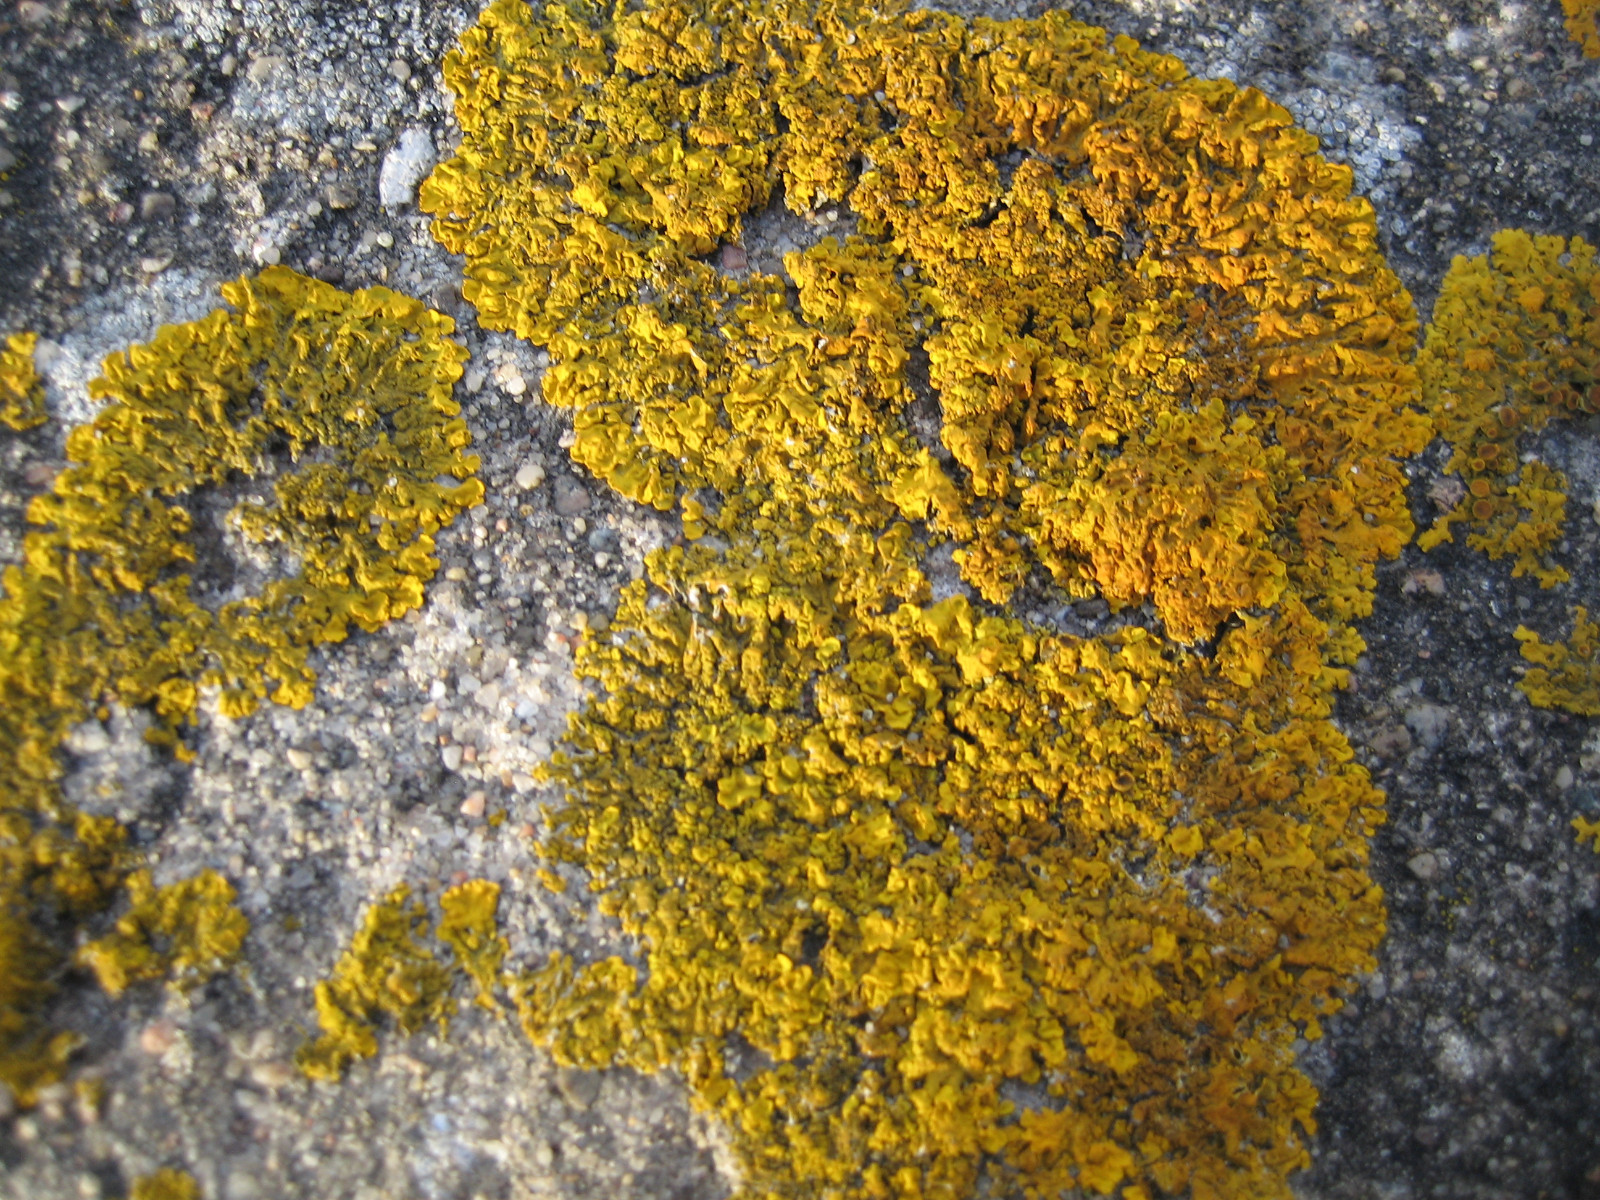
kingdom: Fungi
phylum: Ascomycota
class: Lecanoromycetes
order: Teloschistales
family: Teloschistaceae
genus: Xanthoria
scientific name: Xanthoria calcicola
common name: vortet væggelav
